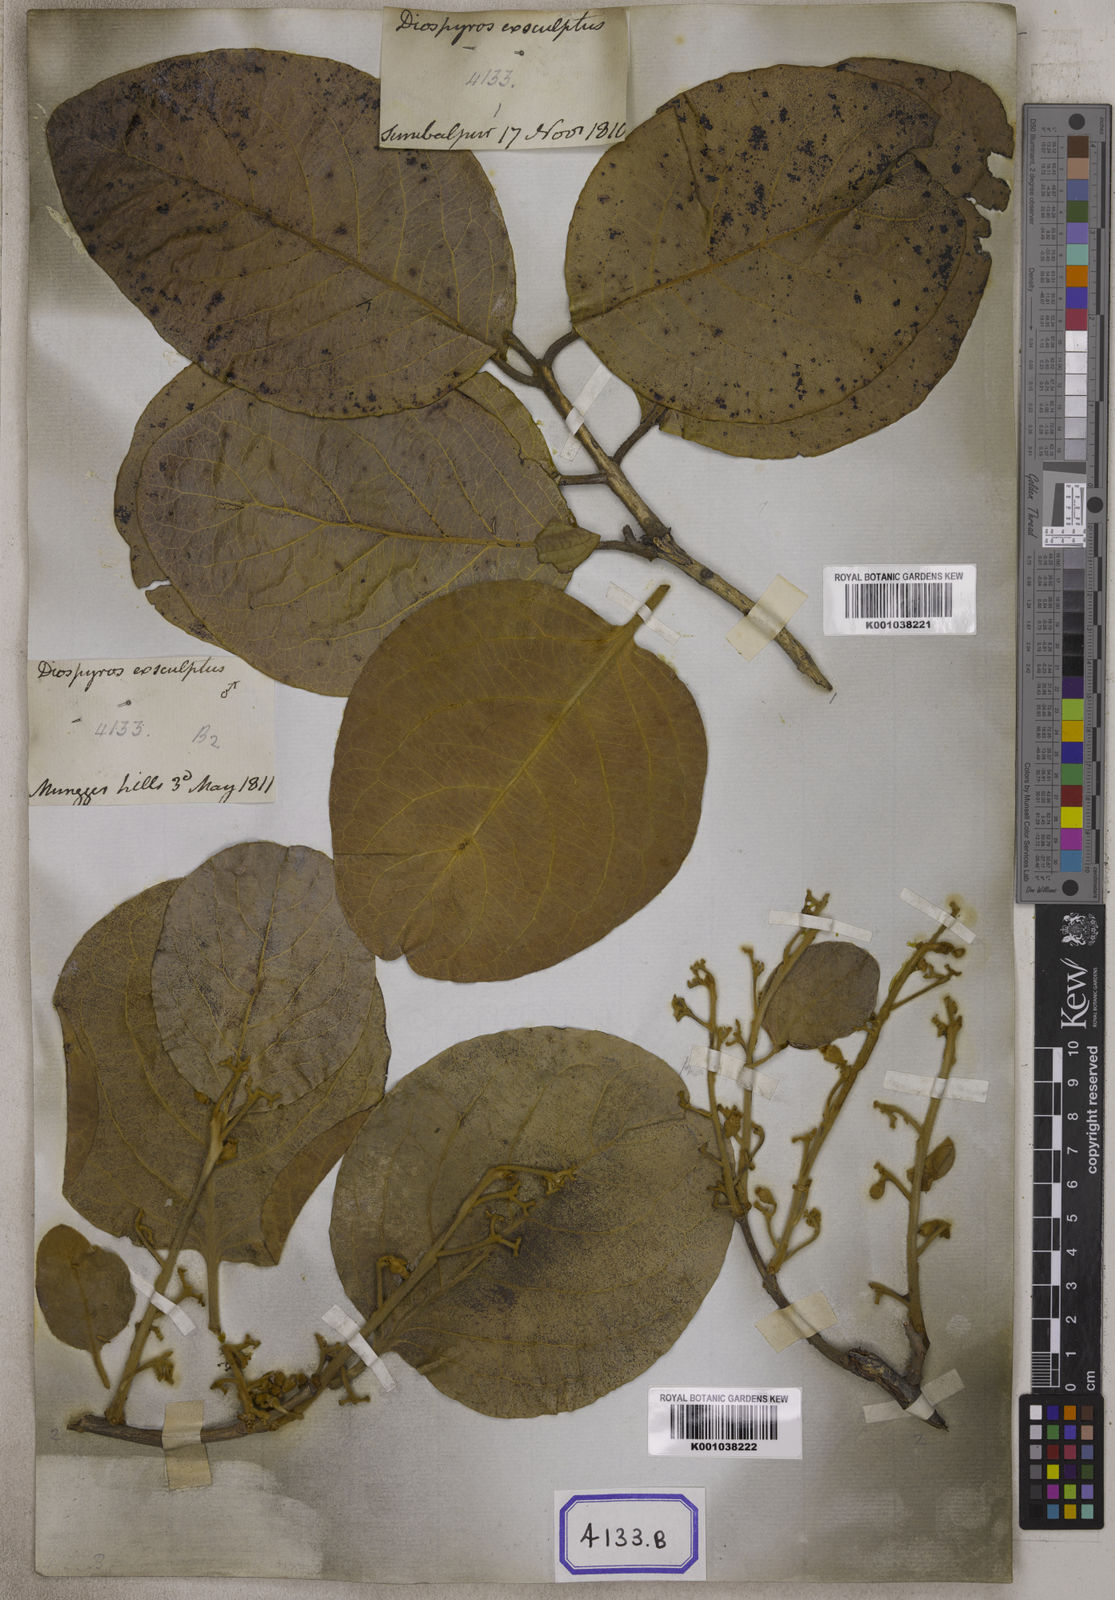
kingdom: Plantae
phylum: Tracheophyta
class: Magnoliopsida
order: Ericales
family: Ebenaceae
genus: Diospyros
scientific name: Diospyros exculpta
